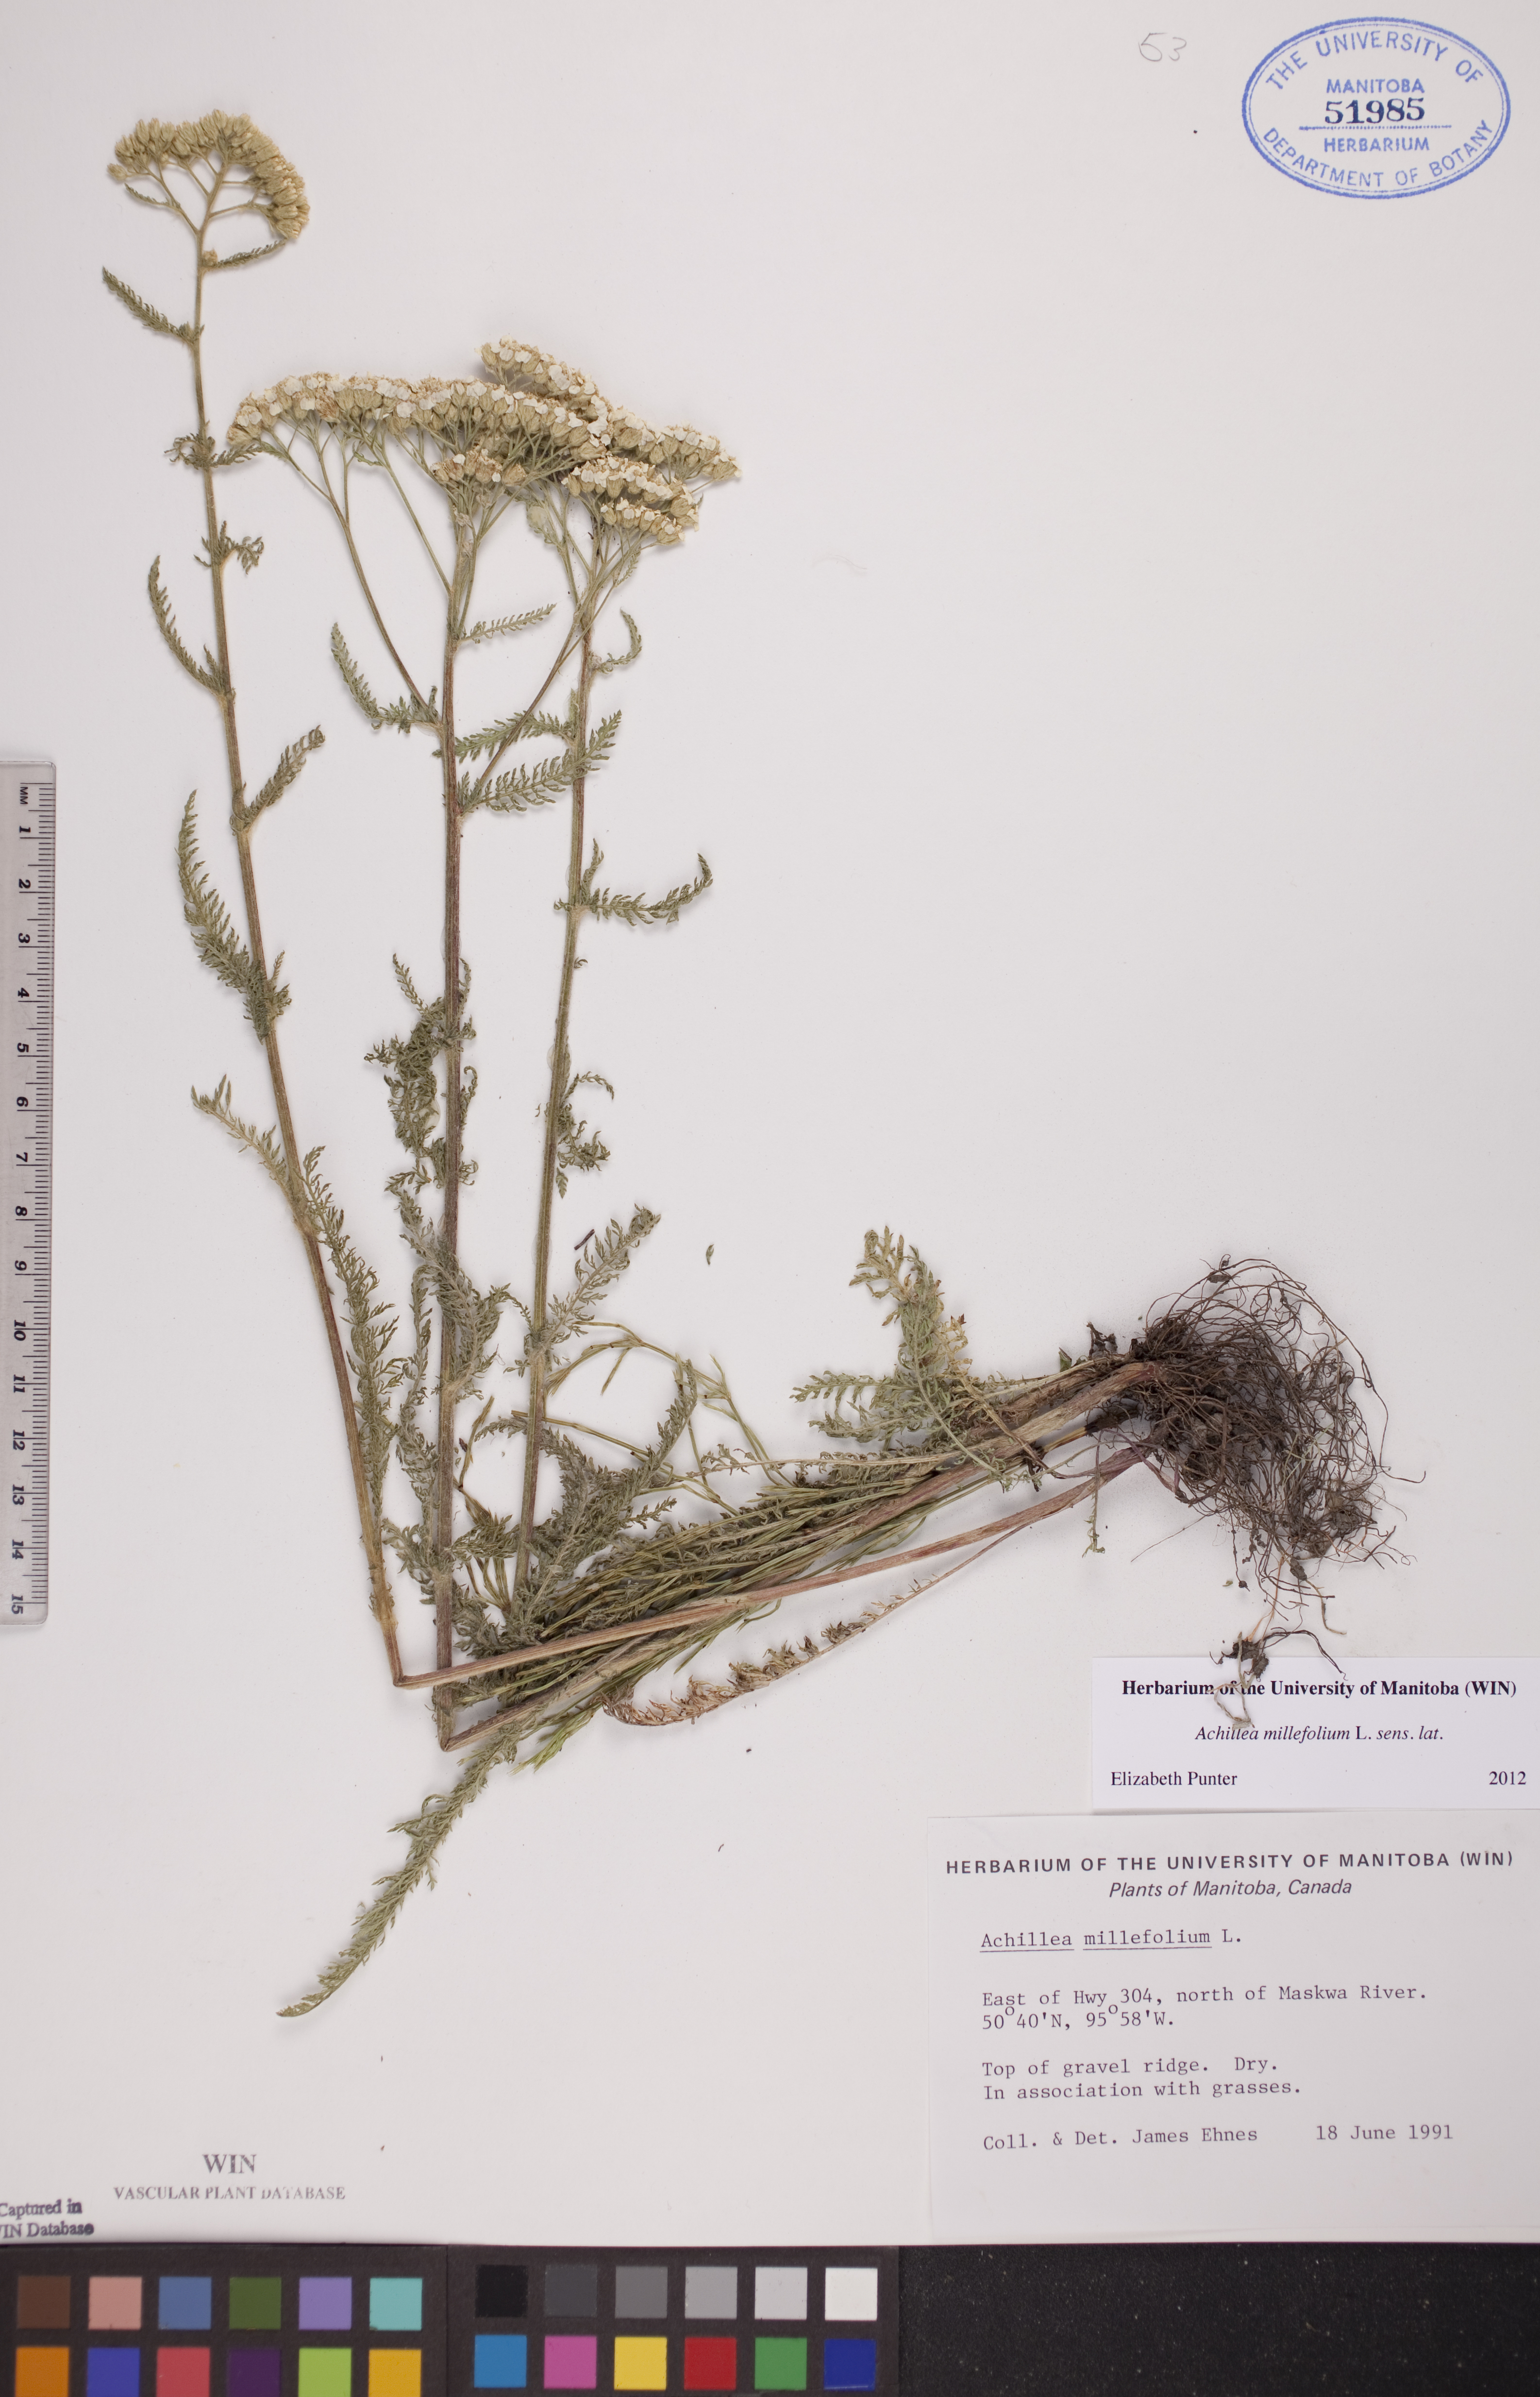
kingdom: Plantae
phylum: Tracheophyta
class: Magnoliopsida
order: Asterales
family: Asteraceae
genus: Achillea
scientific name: Achillea millefolium
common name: Yarrow
